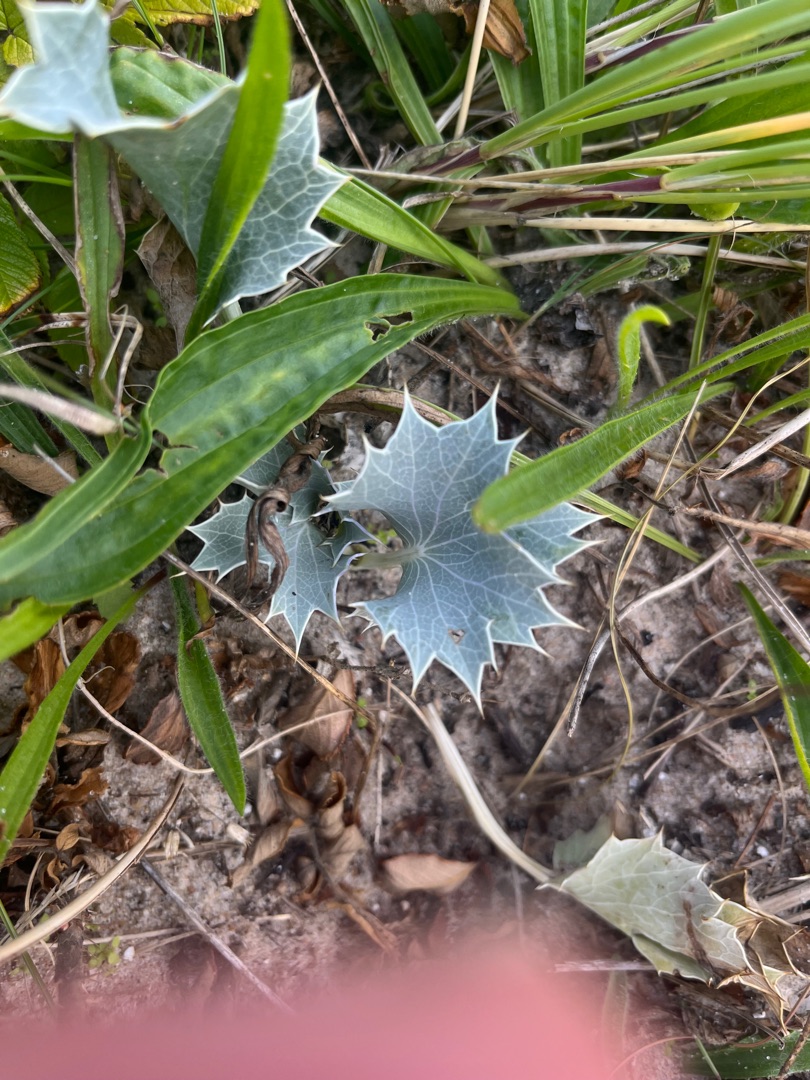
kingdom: Plantae
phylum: Tracheophyta
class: Magnoliopsida
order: Apiales
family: Apiaceae
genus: Eryngium
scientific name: Eryngium maritimum
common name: Strand-mandstro
